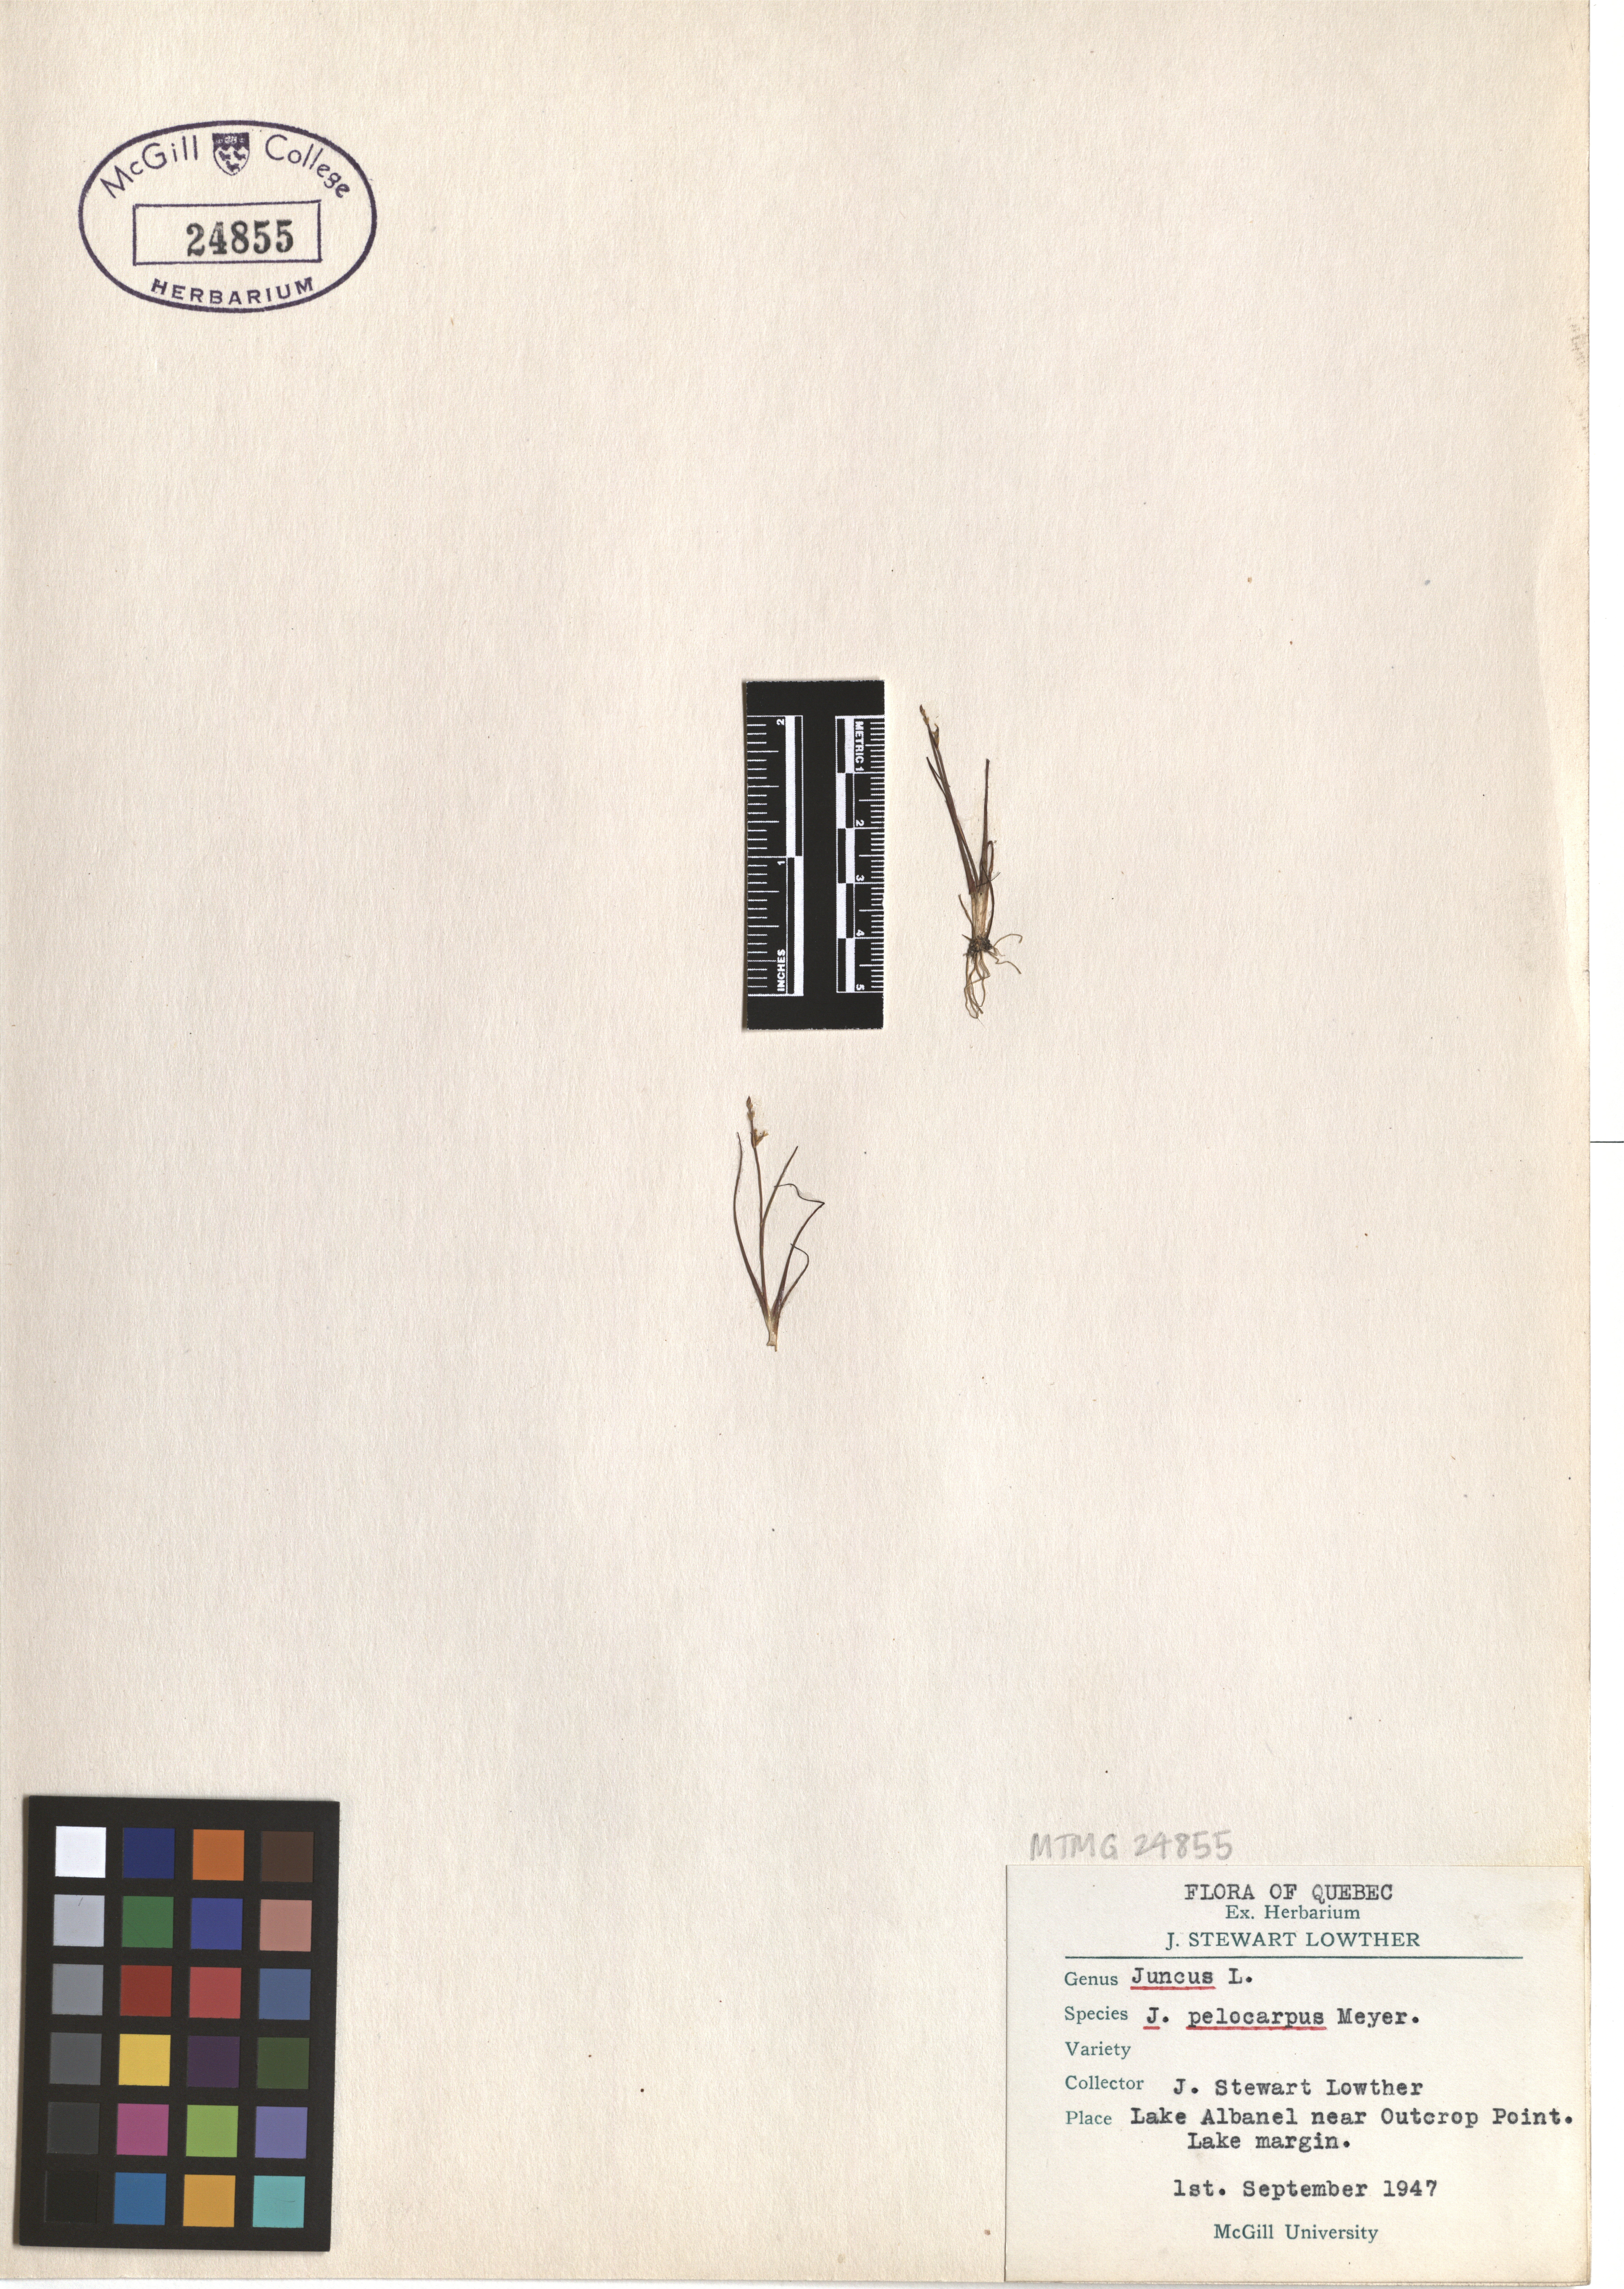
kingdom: Plantae
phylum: Tracheophyta
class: Liliopsida
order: Poales
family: Juncaceae
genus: Juncus
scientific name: Juncus pelocarpus
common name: Brown-fruited rush
